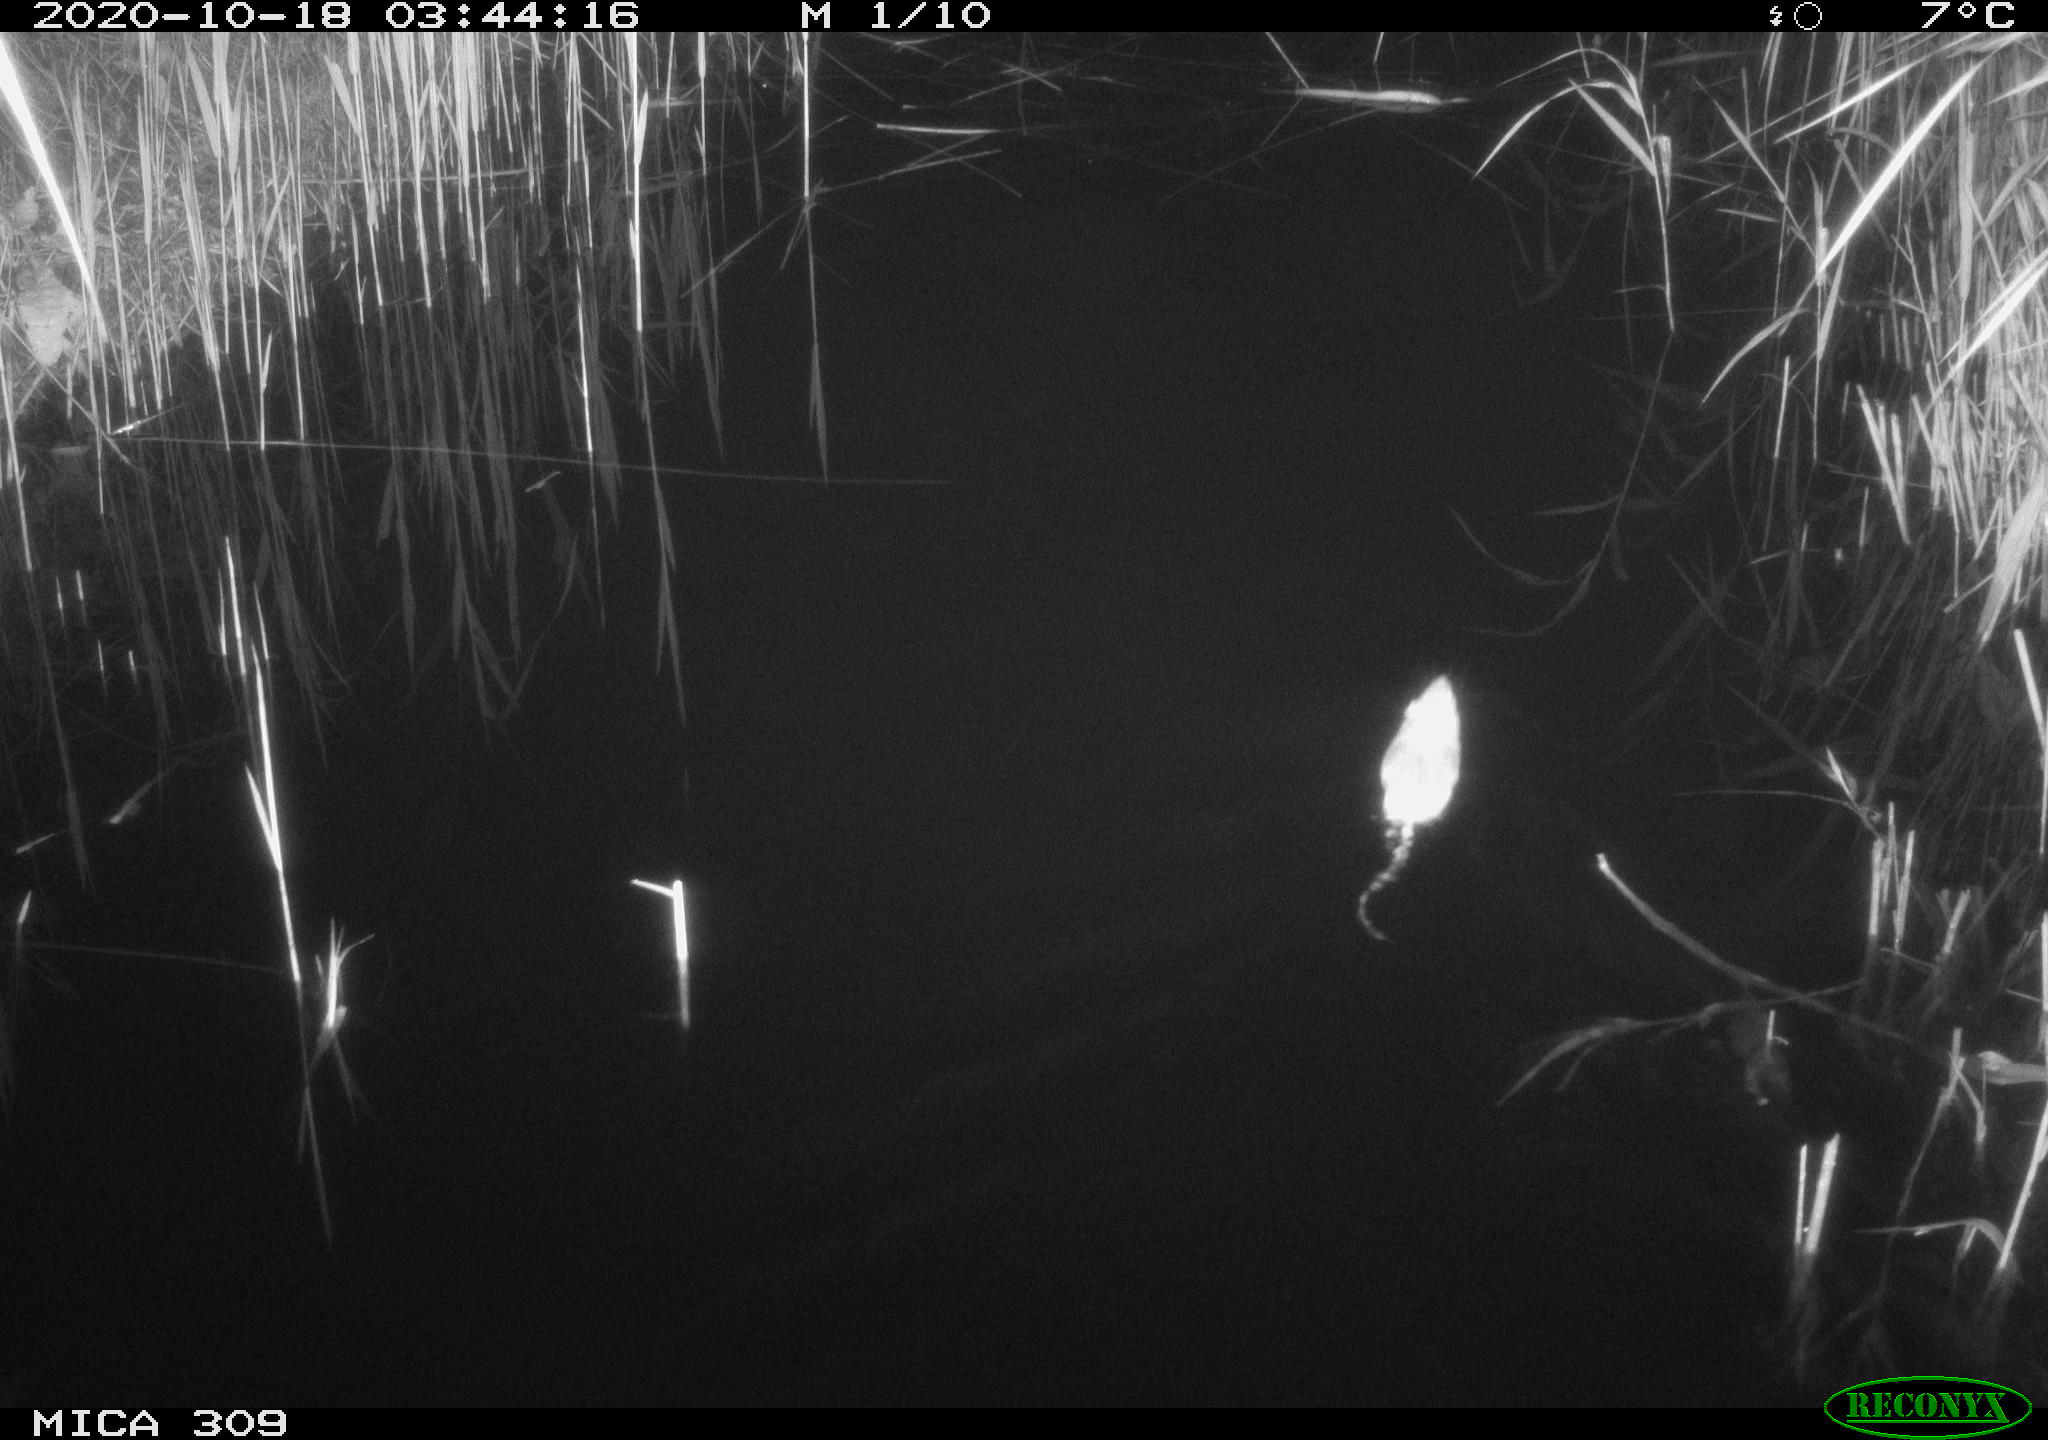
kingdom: Animalia
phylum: Chordata
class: Mammalia
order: Rodentia
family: Muridae
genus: Rattus
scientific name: Rattus norvegicus
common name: Brown rat
